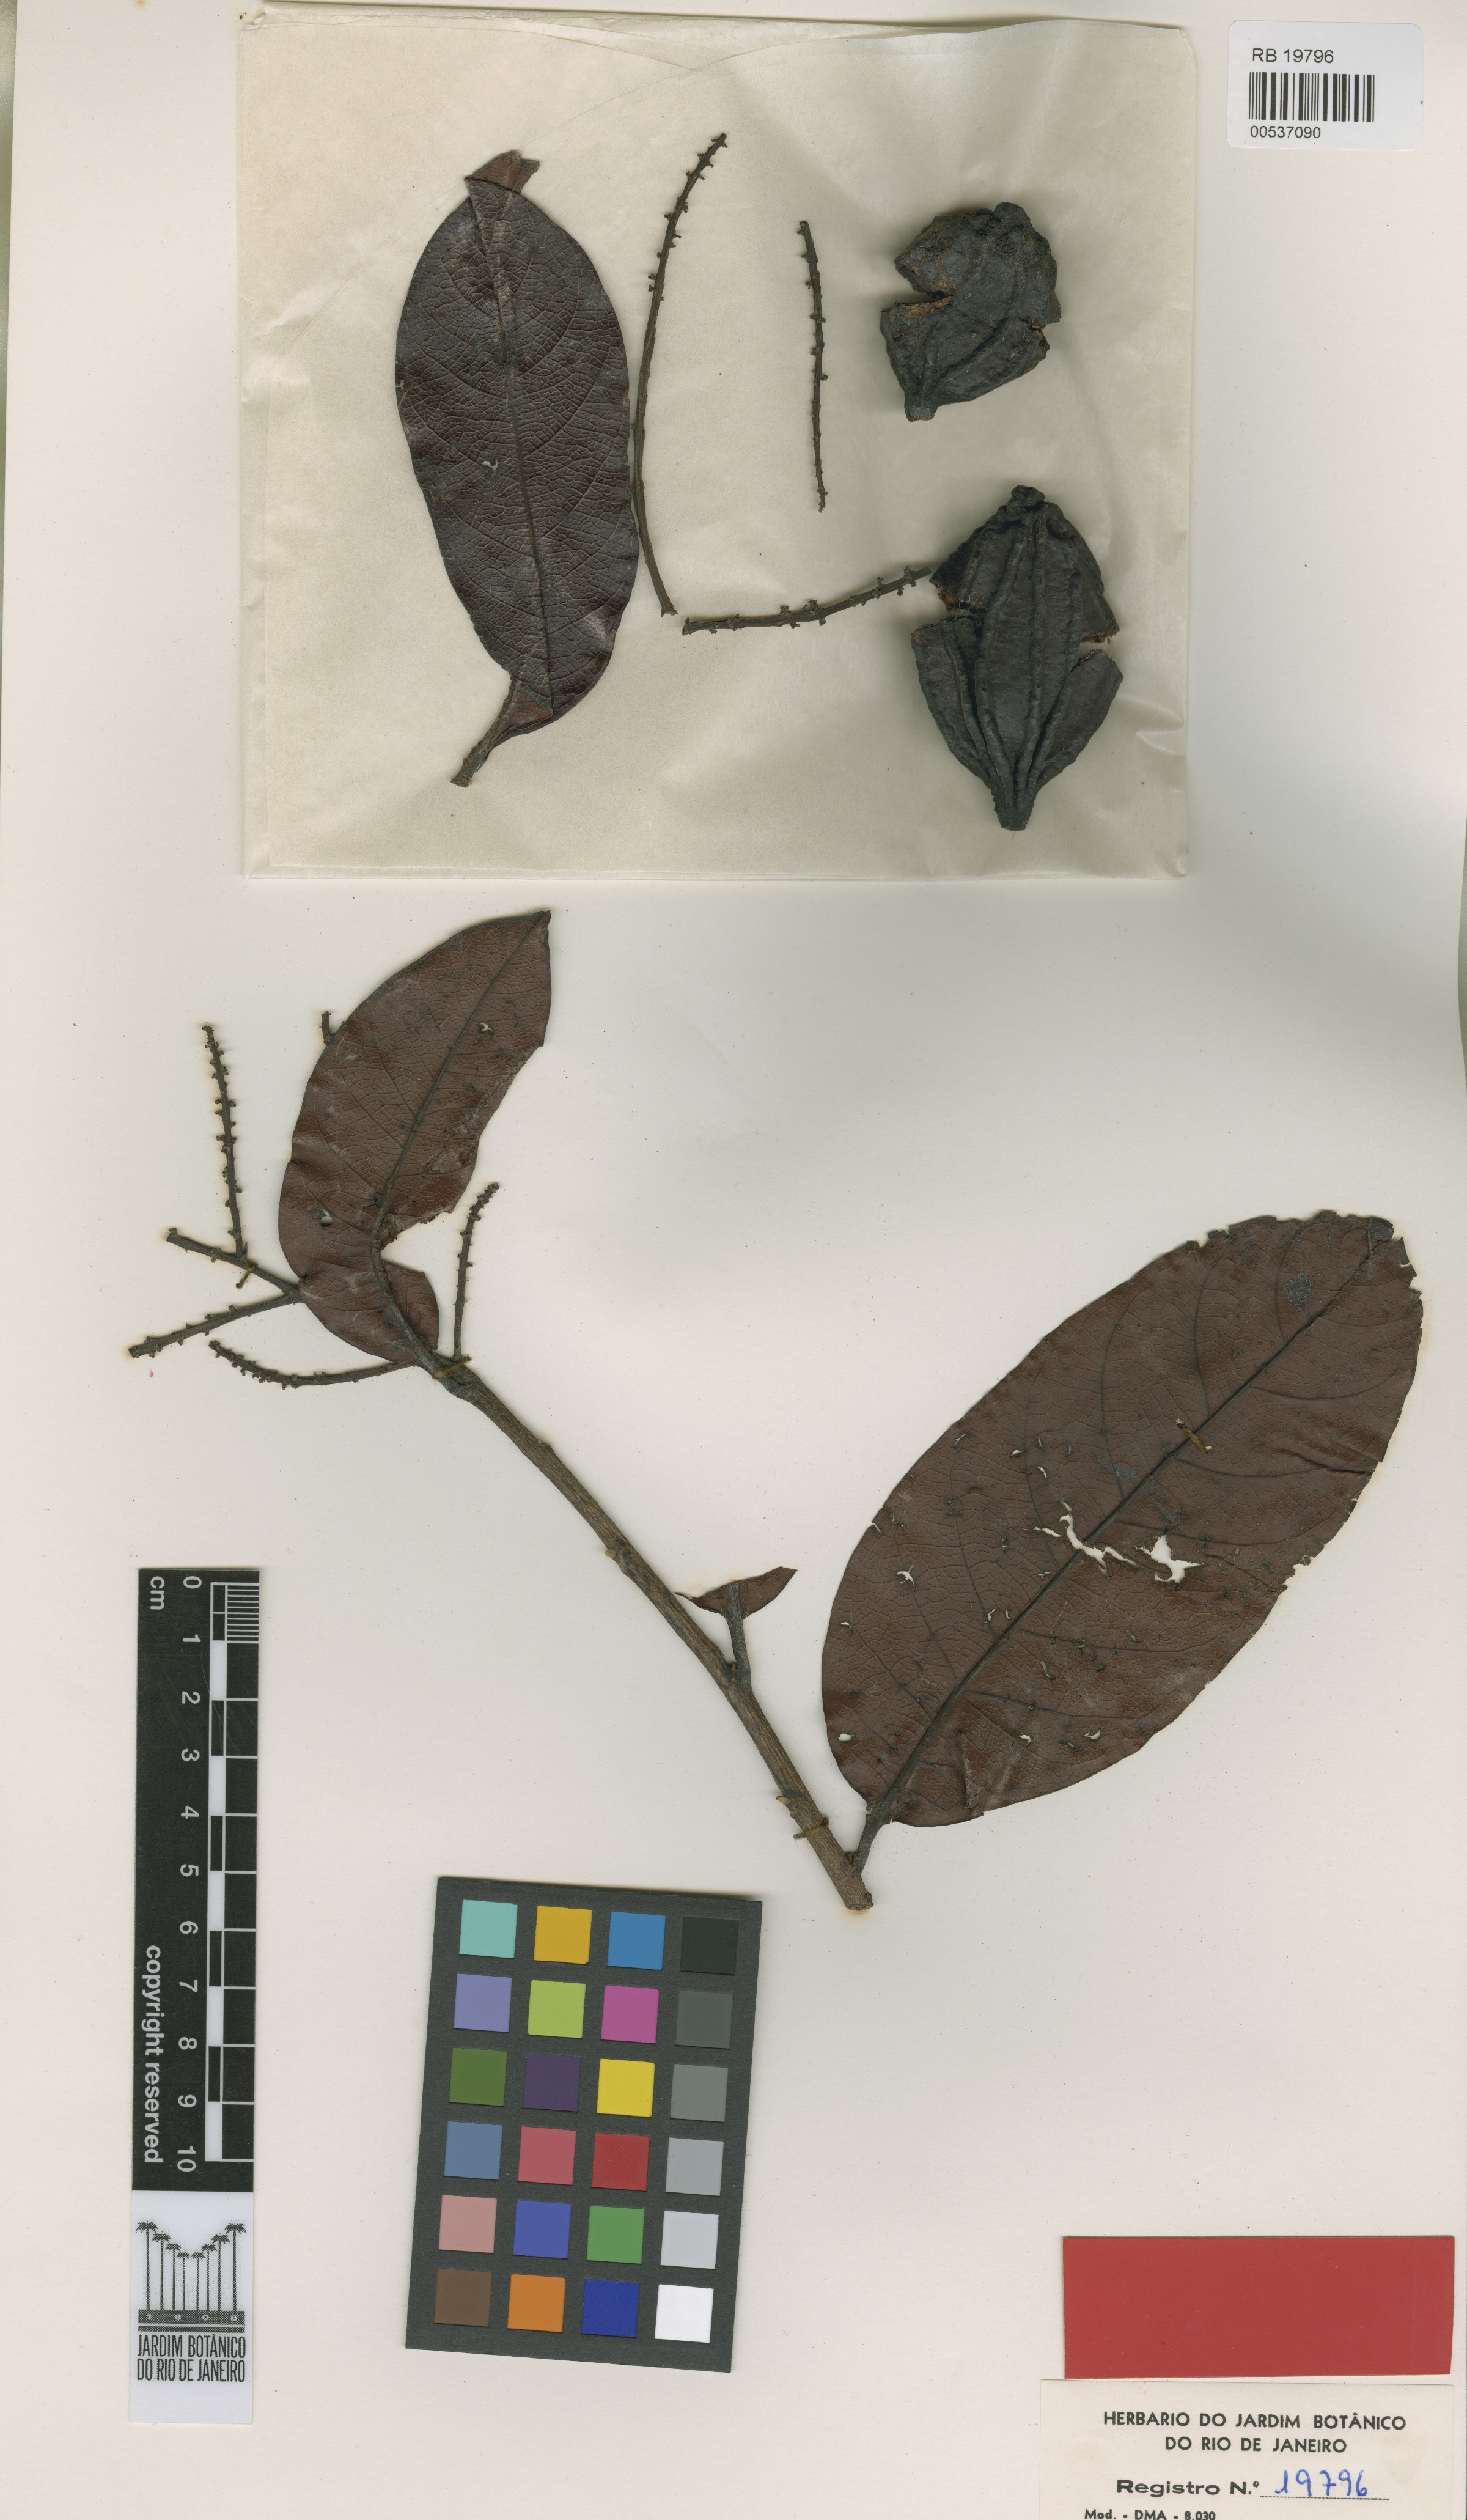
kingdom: Plantae
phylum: Tracheophyta
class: Magnoliopsida
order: Malpighiales
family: Chrysobalanaceae
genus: Hymenopus
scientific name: Hymenopus reticulatus
